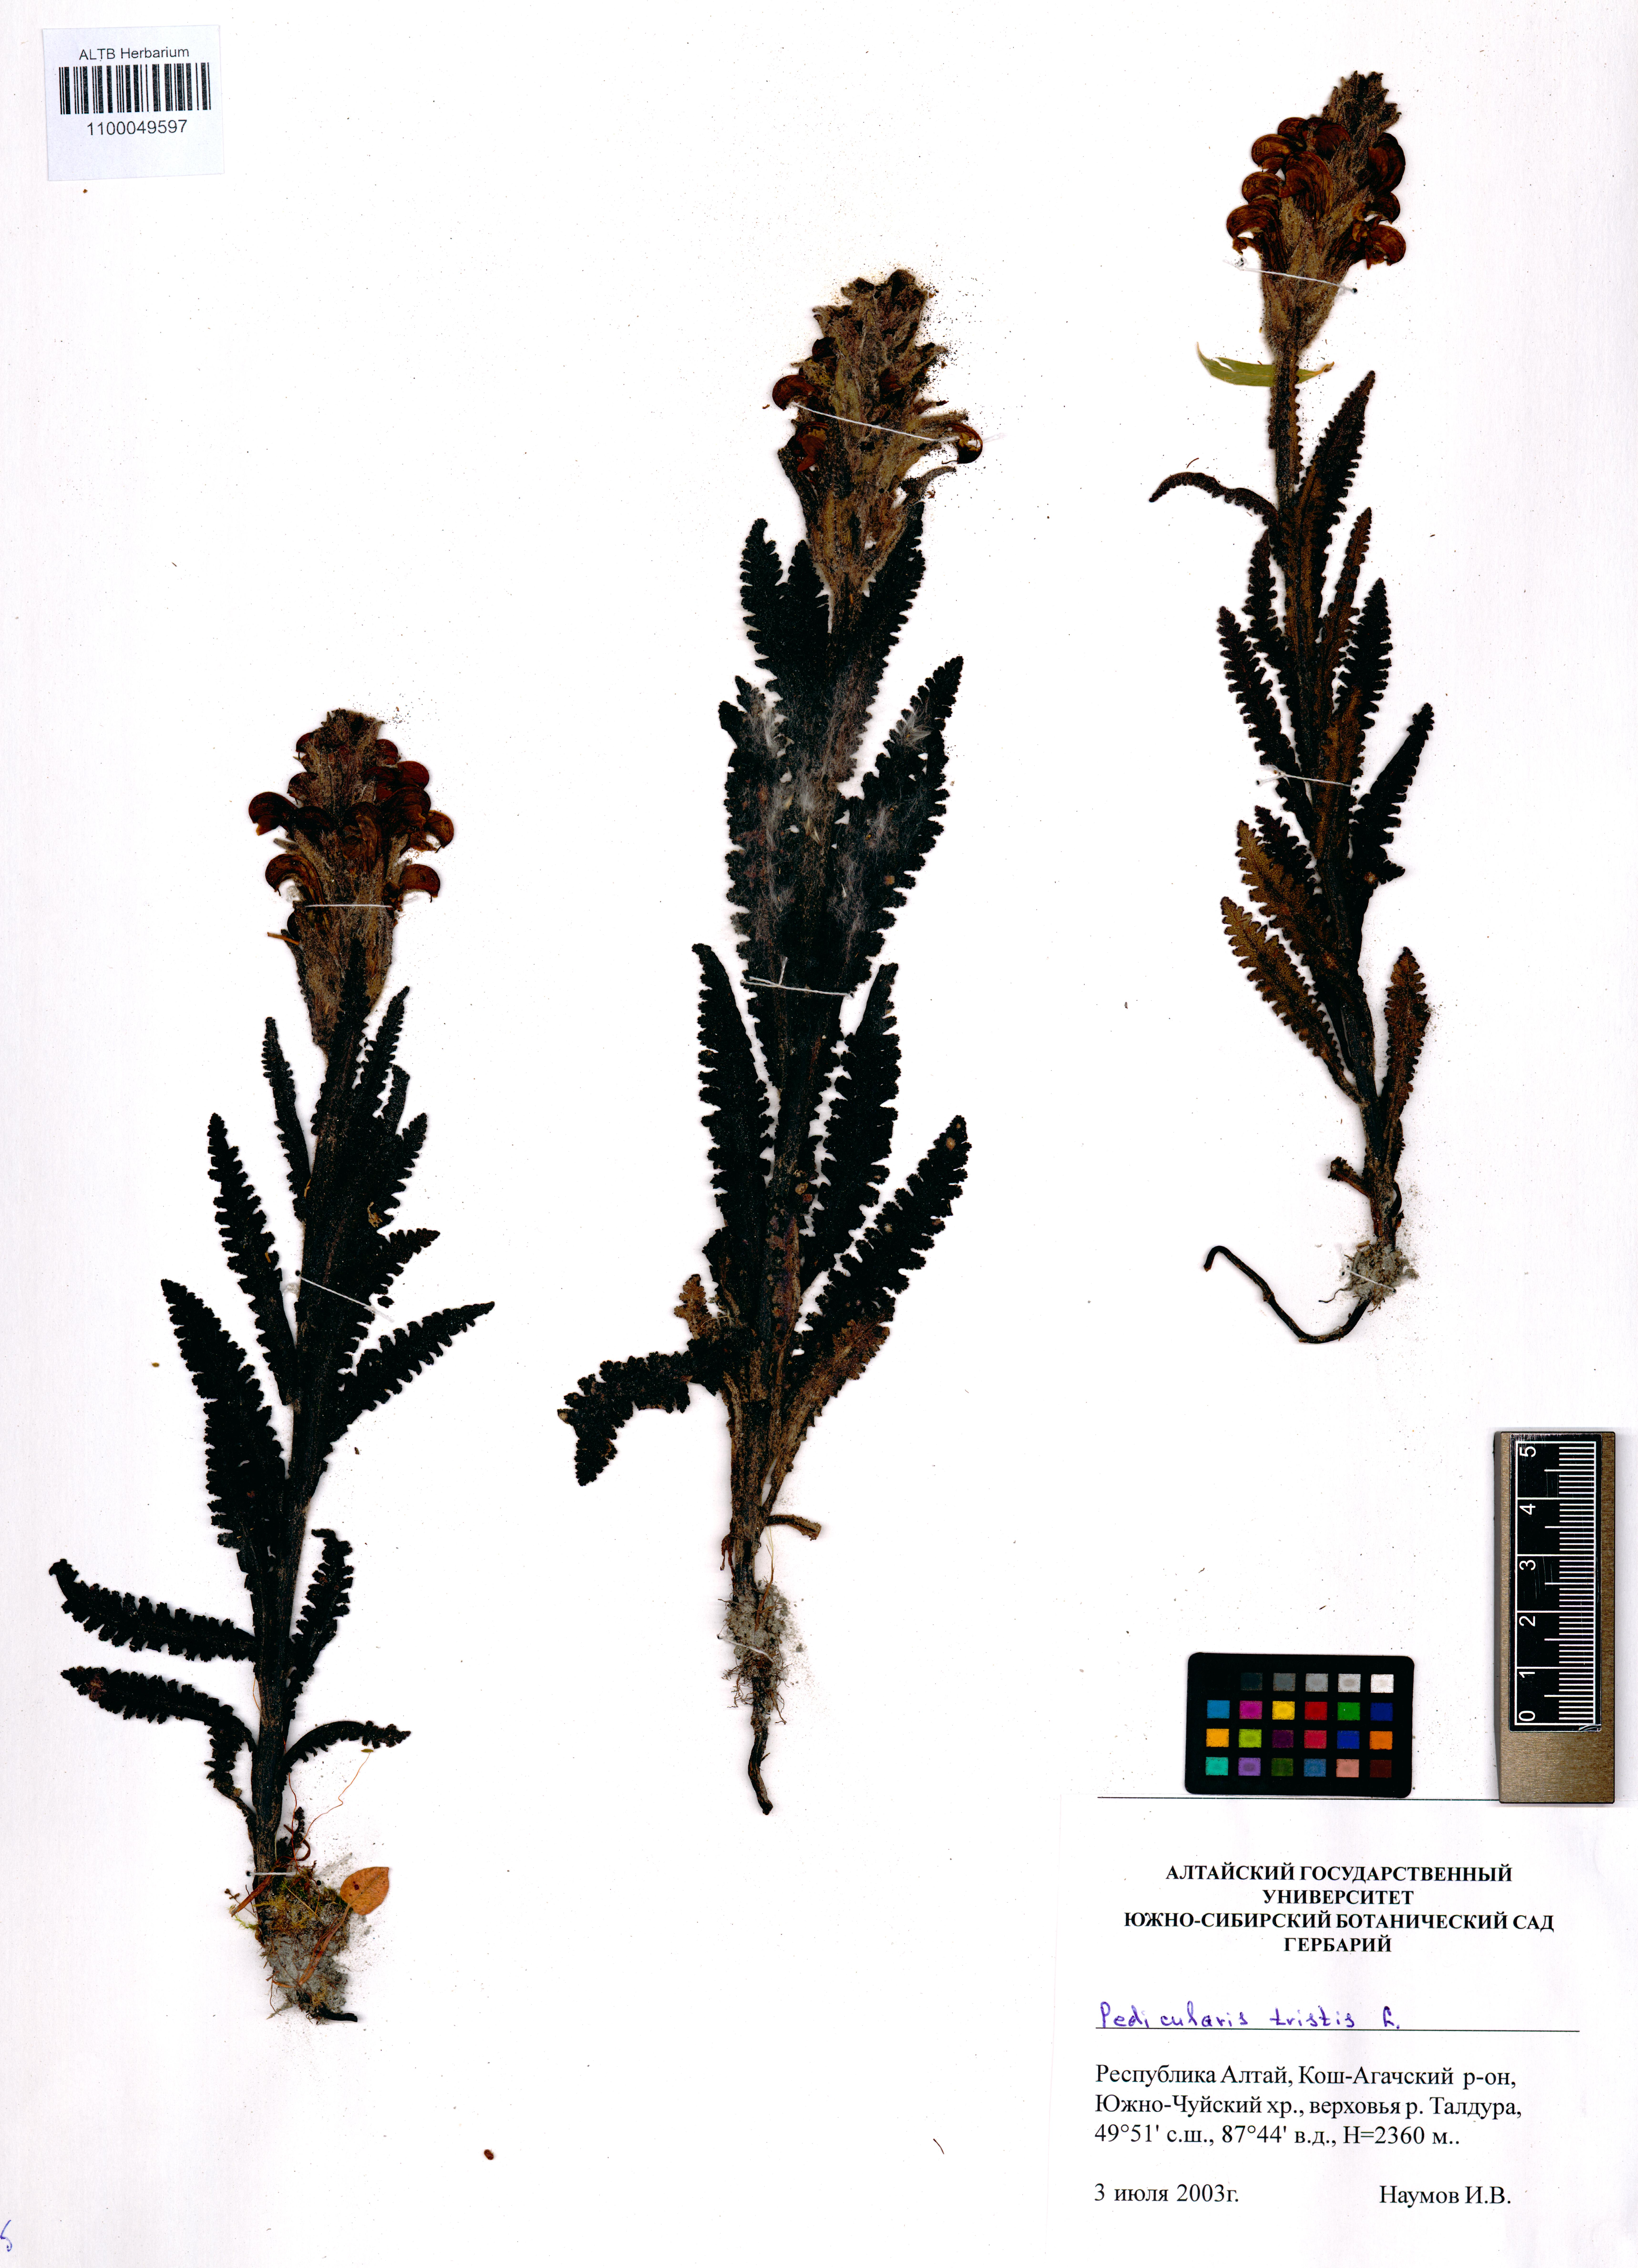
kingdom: Plantae
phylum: Tracheophyta
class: Magnoliopsida
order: Lamiales
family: Orobanchaceae
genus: Pedicularis
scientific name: Pedicularis tristis
